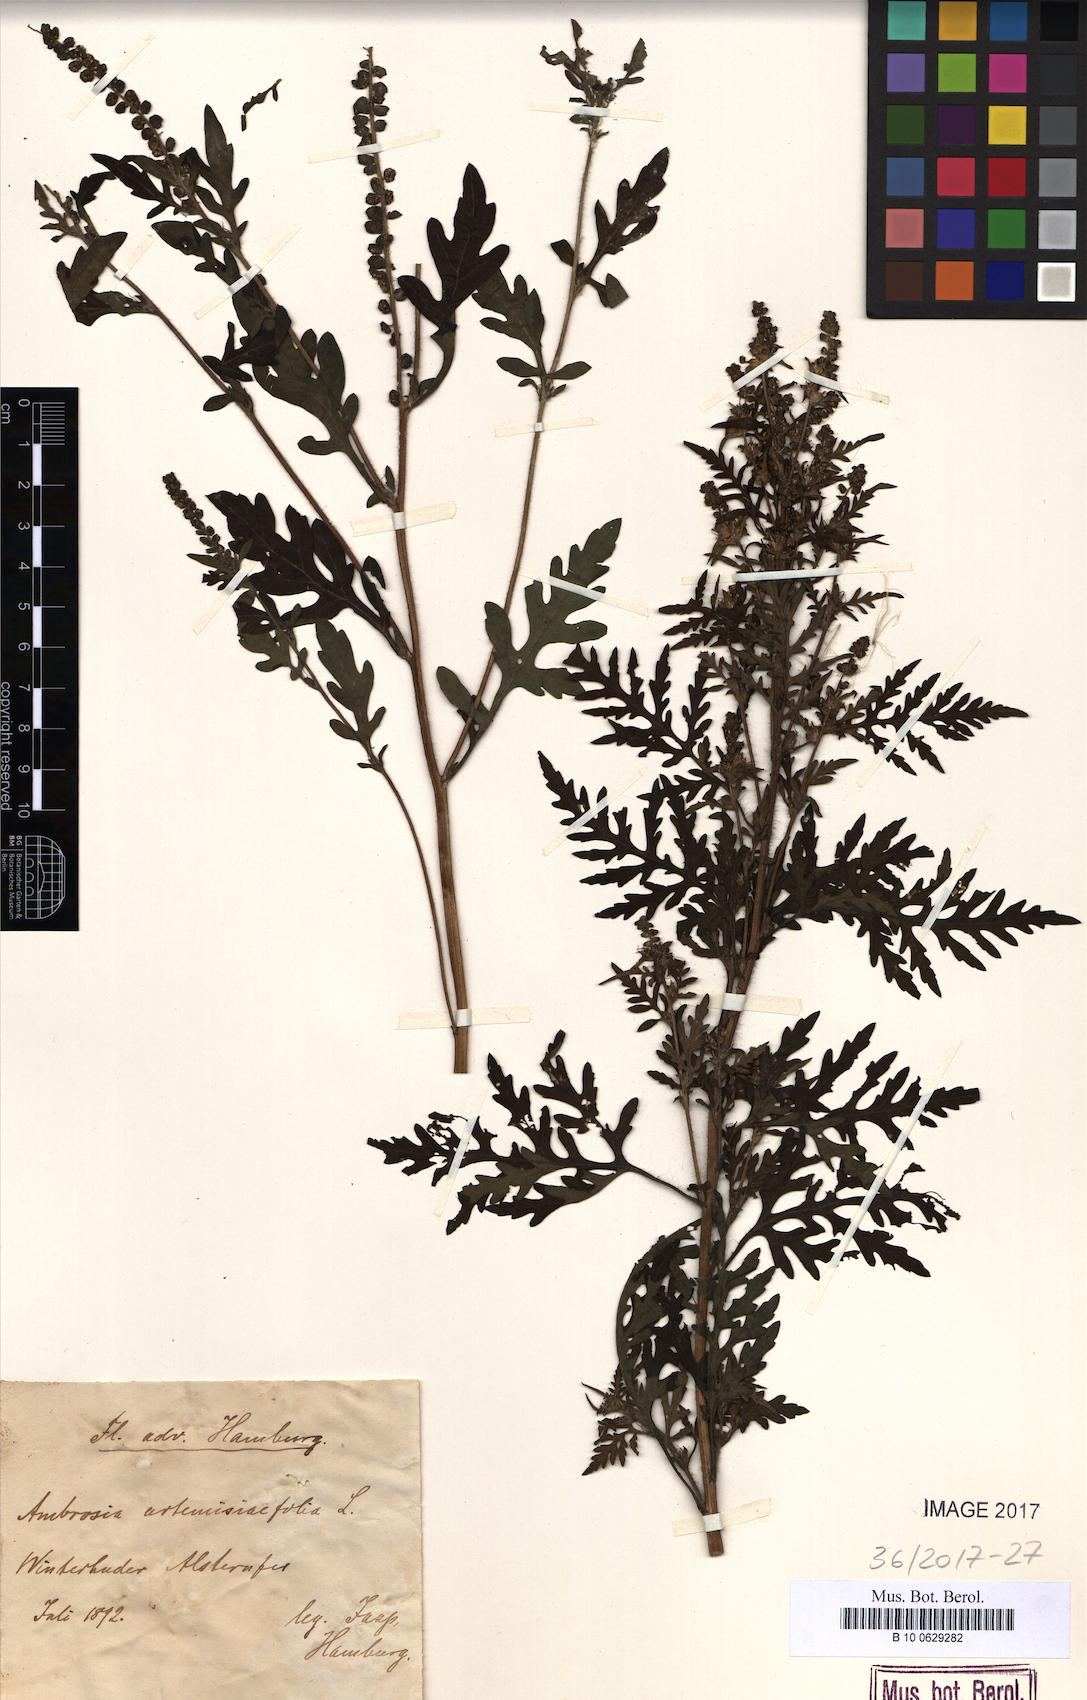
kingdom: Plantae
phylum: Tracheophyta
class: Magnoliopsida
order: Asterales
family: Asteraceae
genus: Ambrosia
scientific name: Ambrosia artemisiifolia
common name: Annual ragweed
